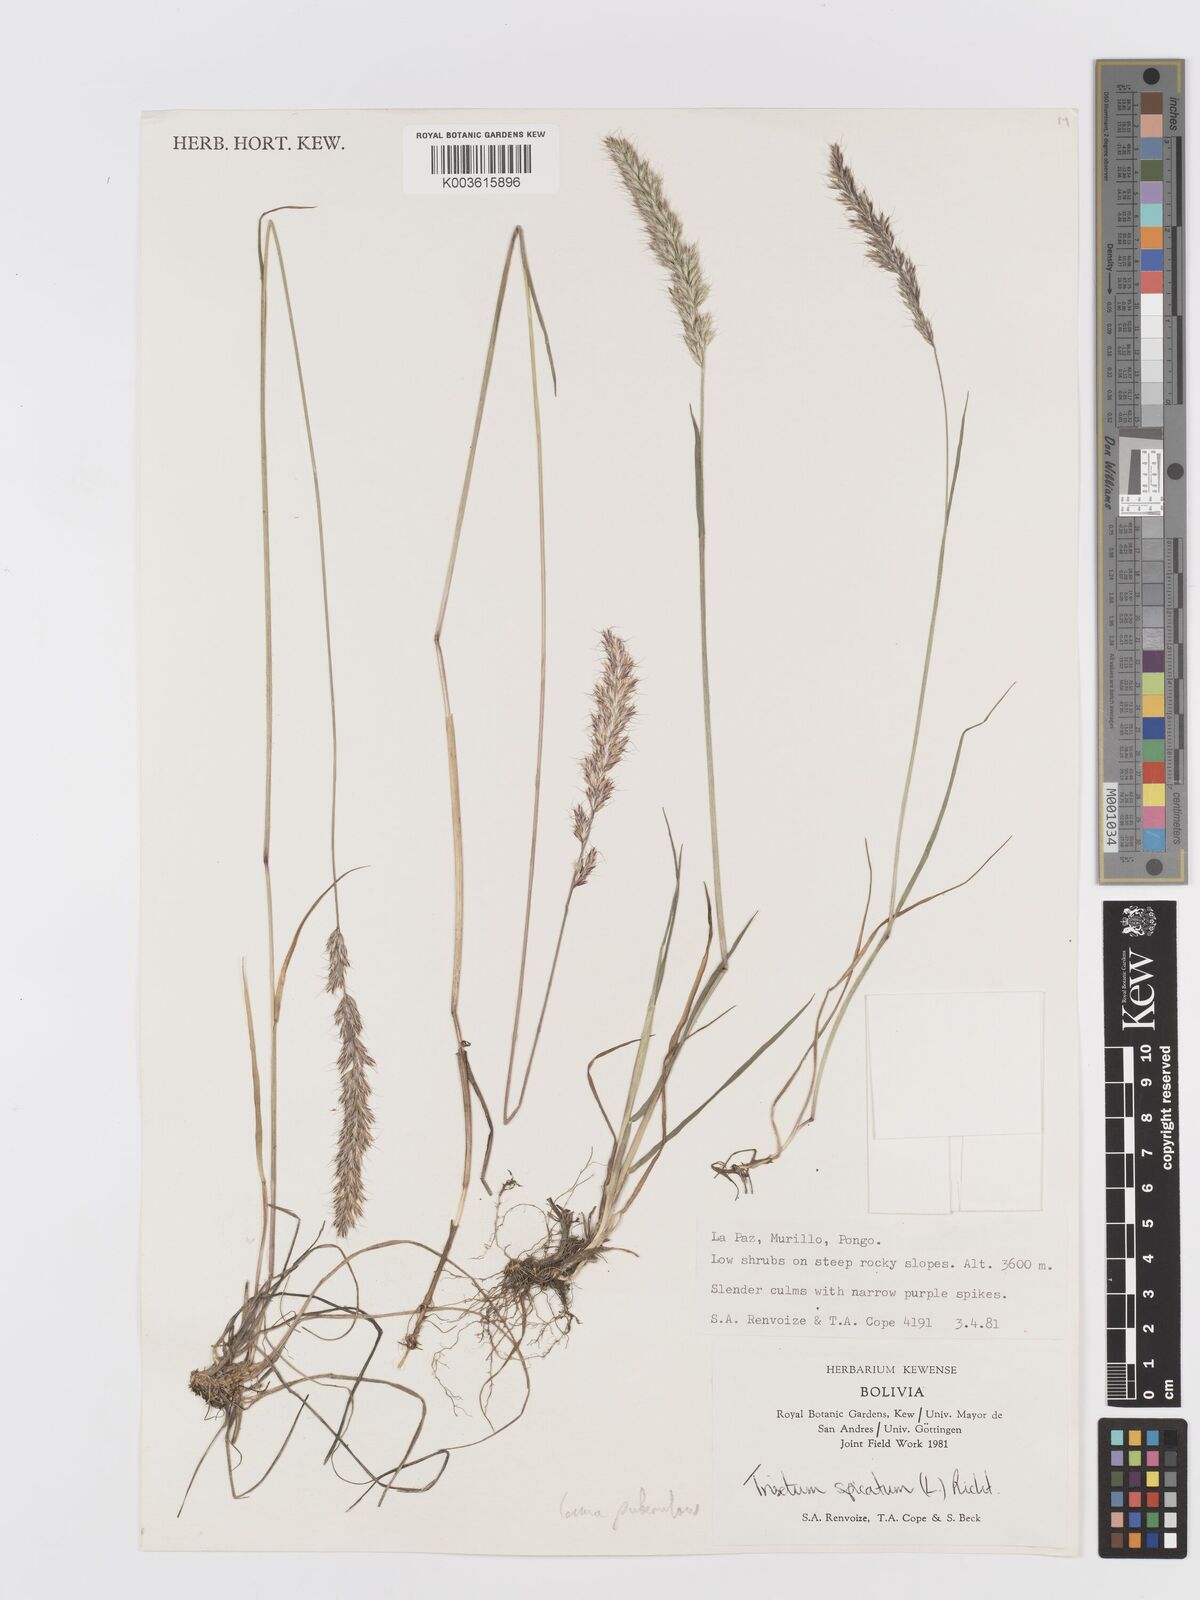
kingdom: Plantae
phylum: Tracheophyta
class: Liliopsida
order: Poales
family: Poaceae
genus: Koeleria
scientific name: Koeleria spicata
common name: Mountain trisetum
